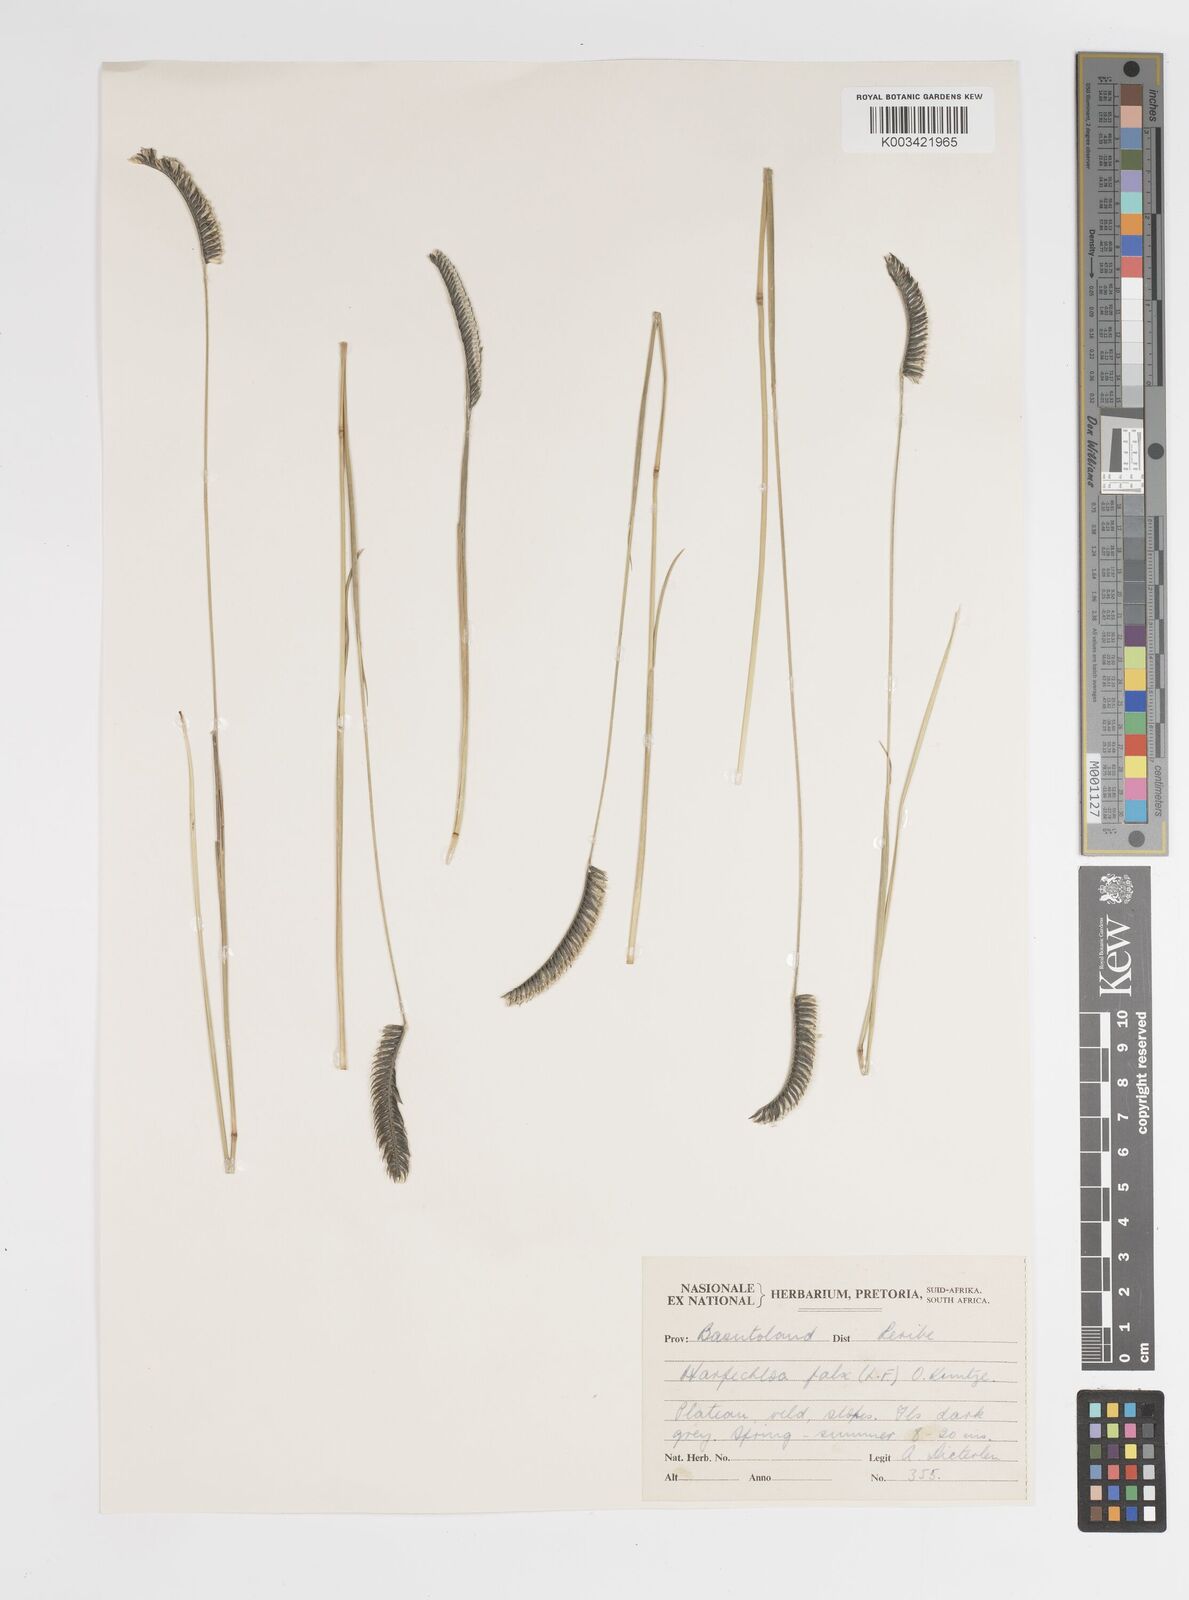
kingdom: Plantae
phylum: Tracheophyta
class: Liliopsida
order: Poales
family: Poaceae
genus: Harpochloa
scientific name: Harpochloa falx
